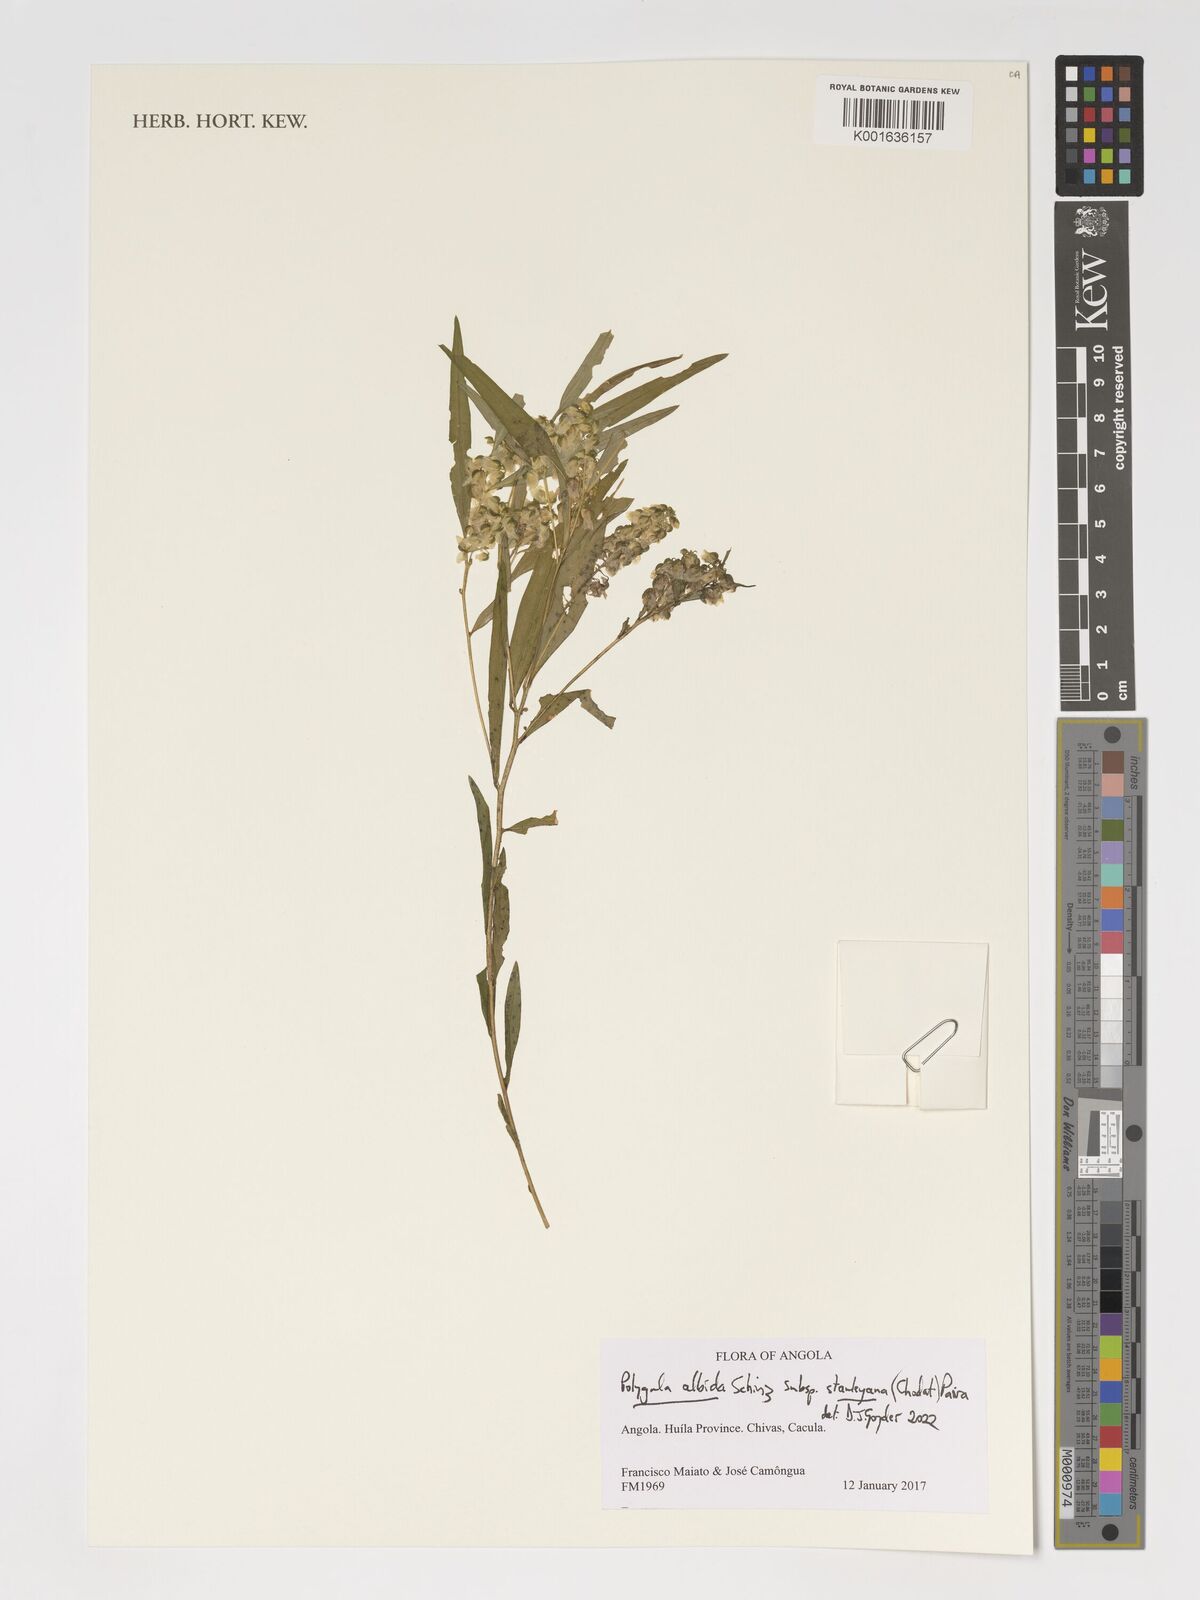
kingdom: Plantae
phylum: Tracheophyta
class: Magnoliopsida
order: Fabales
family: Polygalaceae
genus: Polygala
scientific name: Polygala albida
